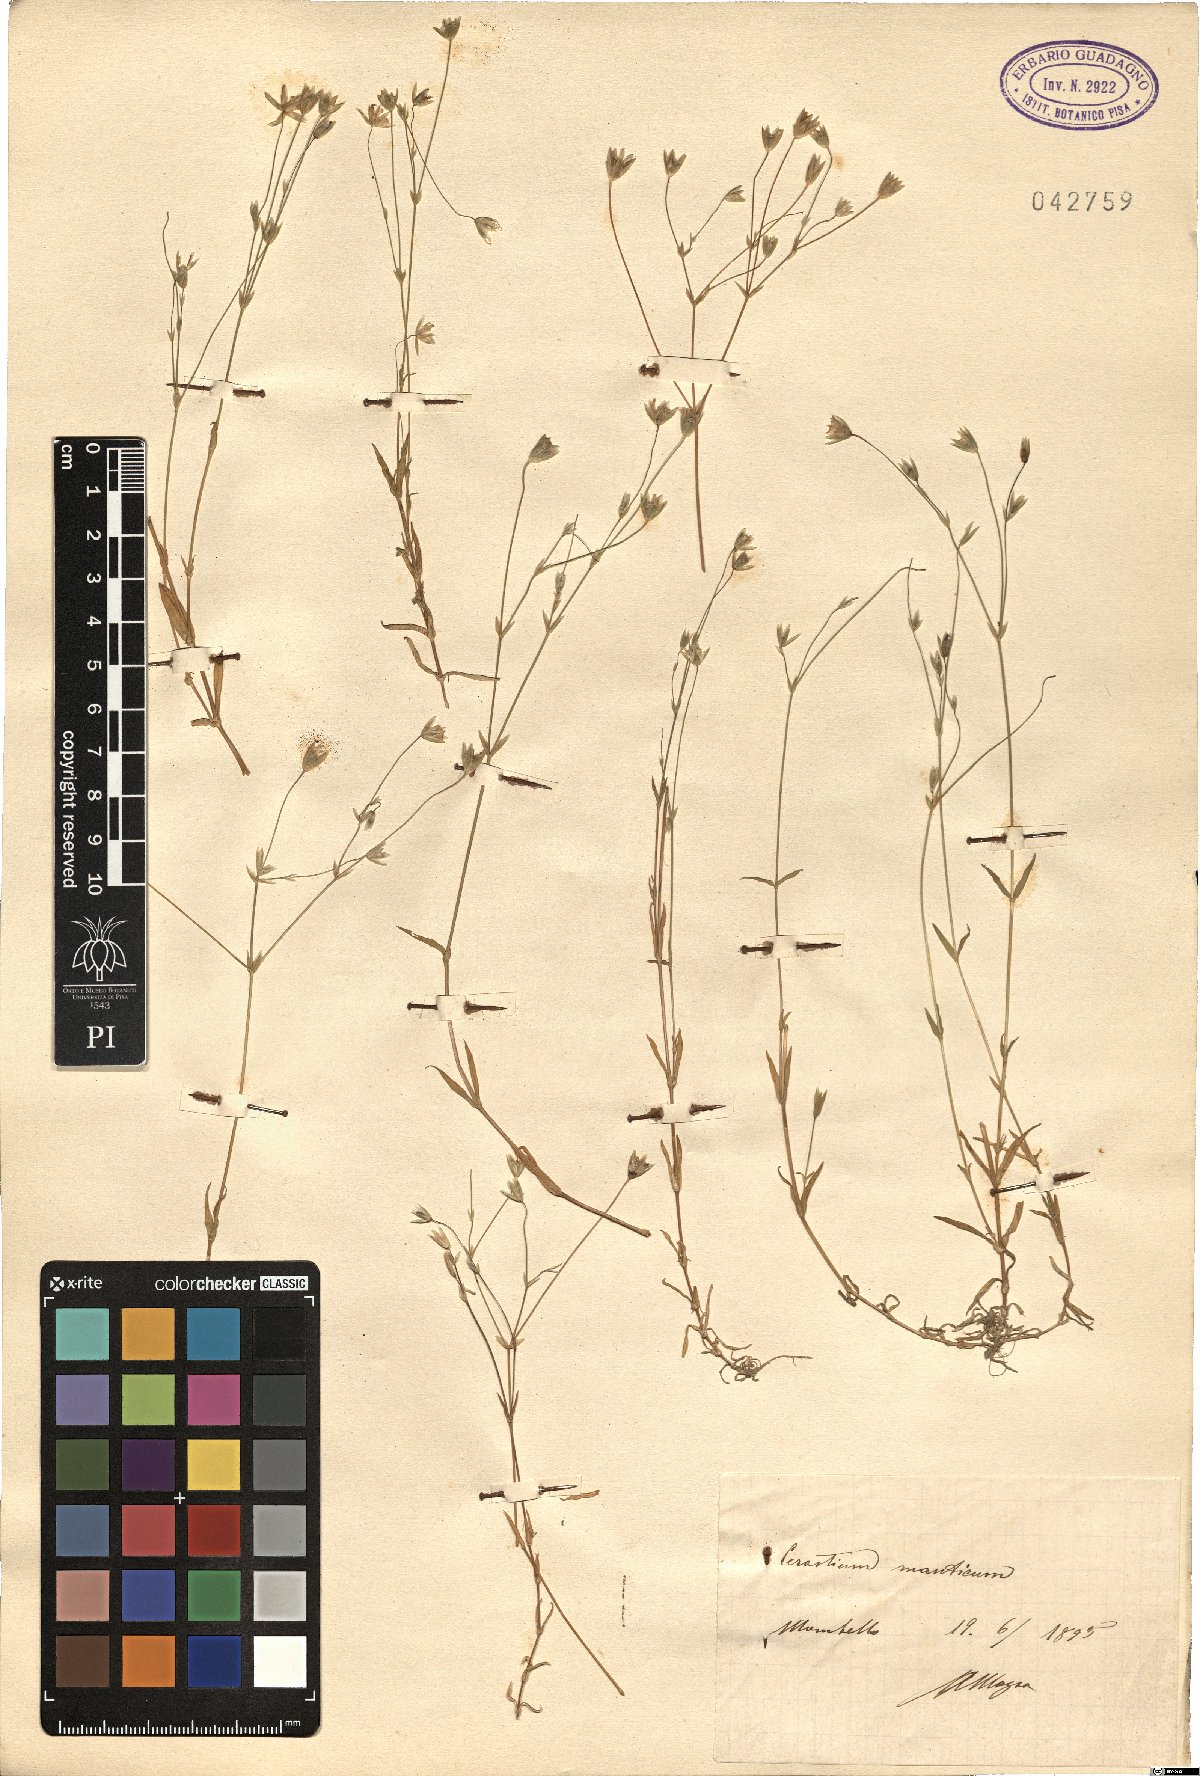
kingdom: Plantae
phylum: Tracheophyta
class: Magnoliopsida
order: Caryophyllales
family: Caryophyllaceae
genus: Moenchia
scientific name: Moenchia mantica
